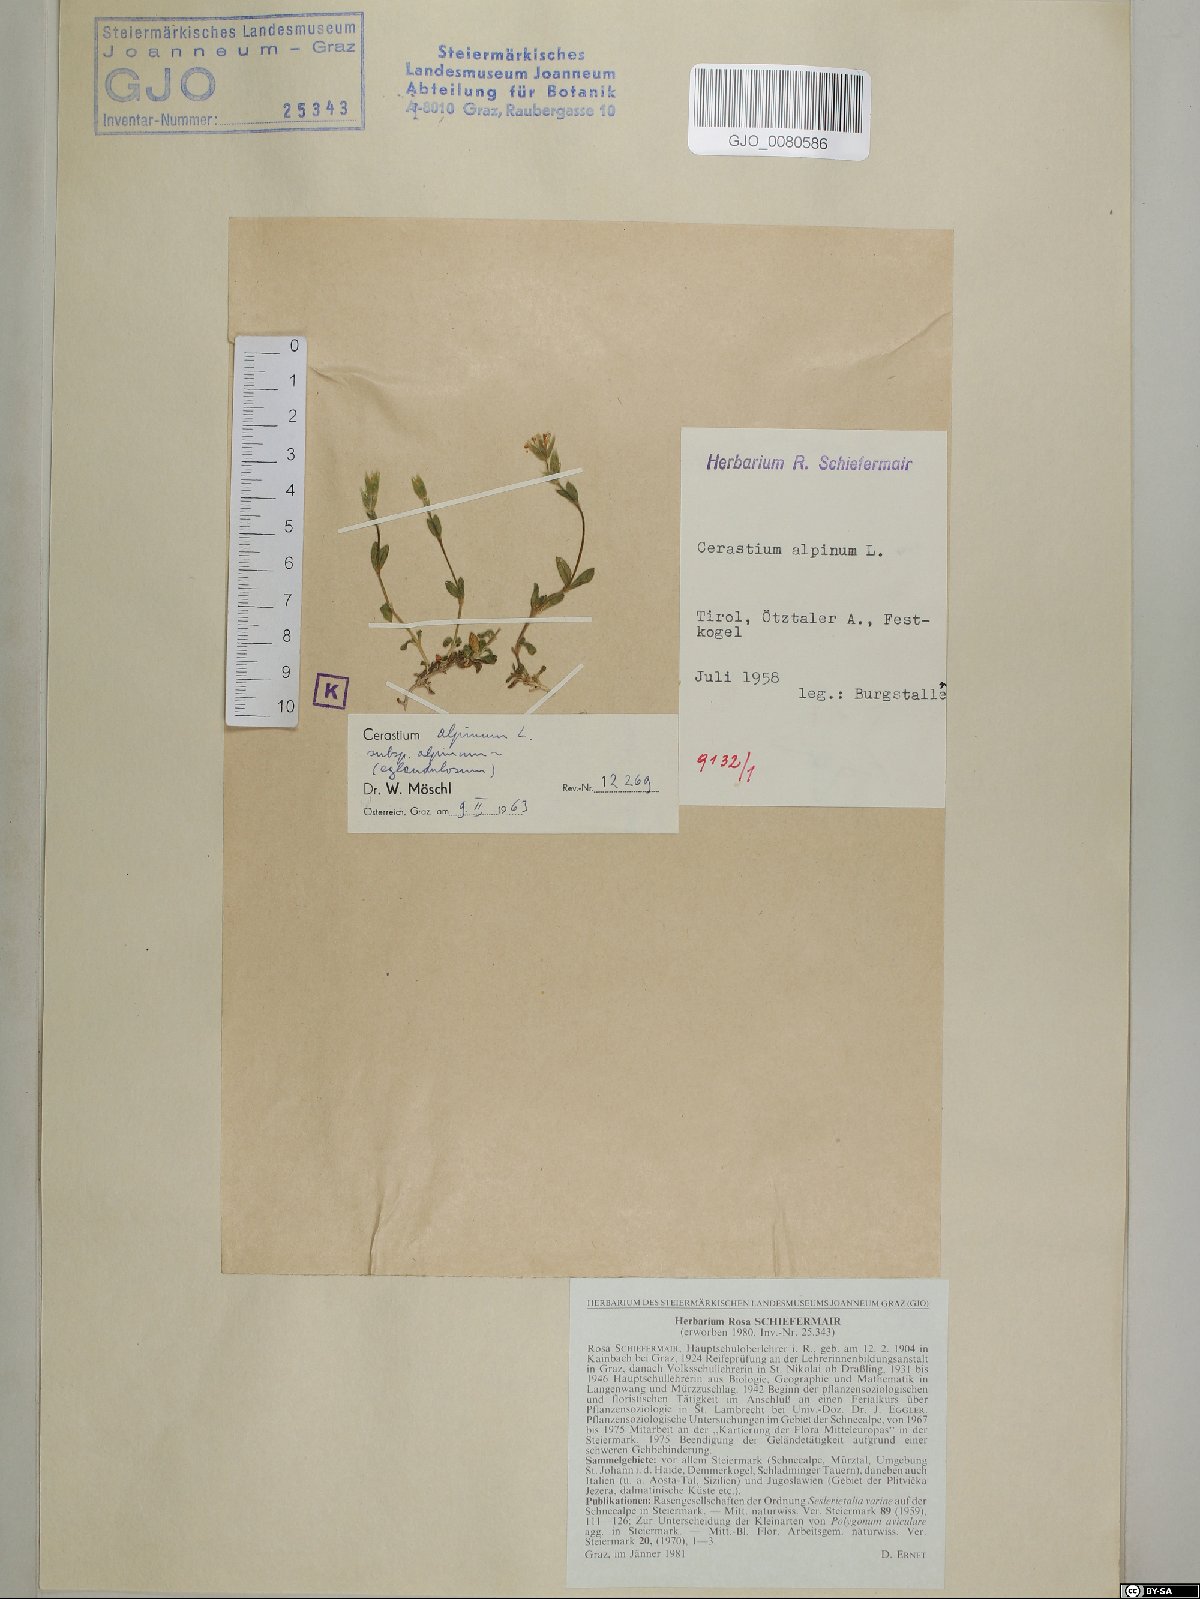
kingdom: Plantae
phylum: Tracheophyta
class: Magnoliopsida
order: Caryophyllales
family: Caryophyllaceae
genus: Cerastium
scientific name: Cerastium alpinum
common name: Alpine mouse-ear
